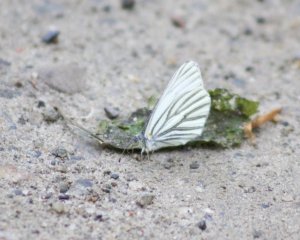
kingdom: Animalia
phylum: Arthropoda
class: Insecta
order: Lepidoptera
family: Pieridae
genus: Pieris
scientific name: Pieris oleracea
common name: Mustard White
